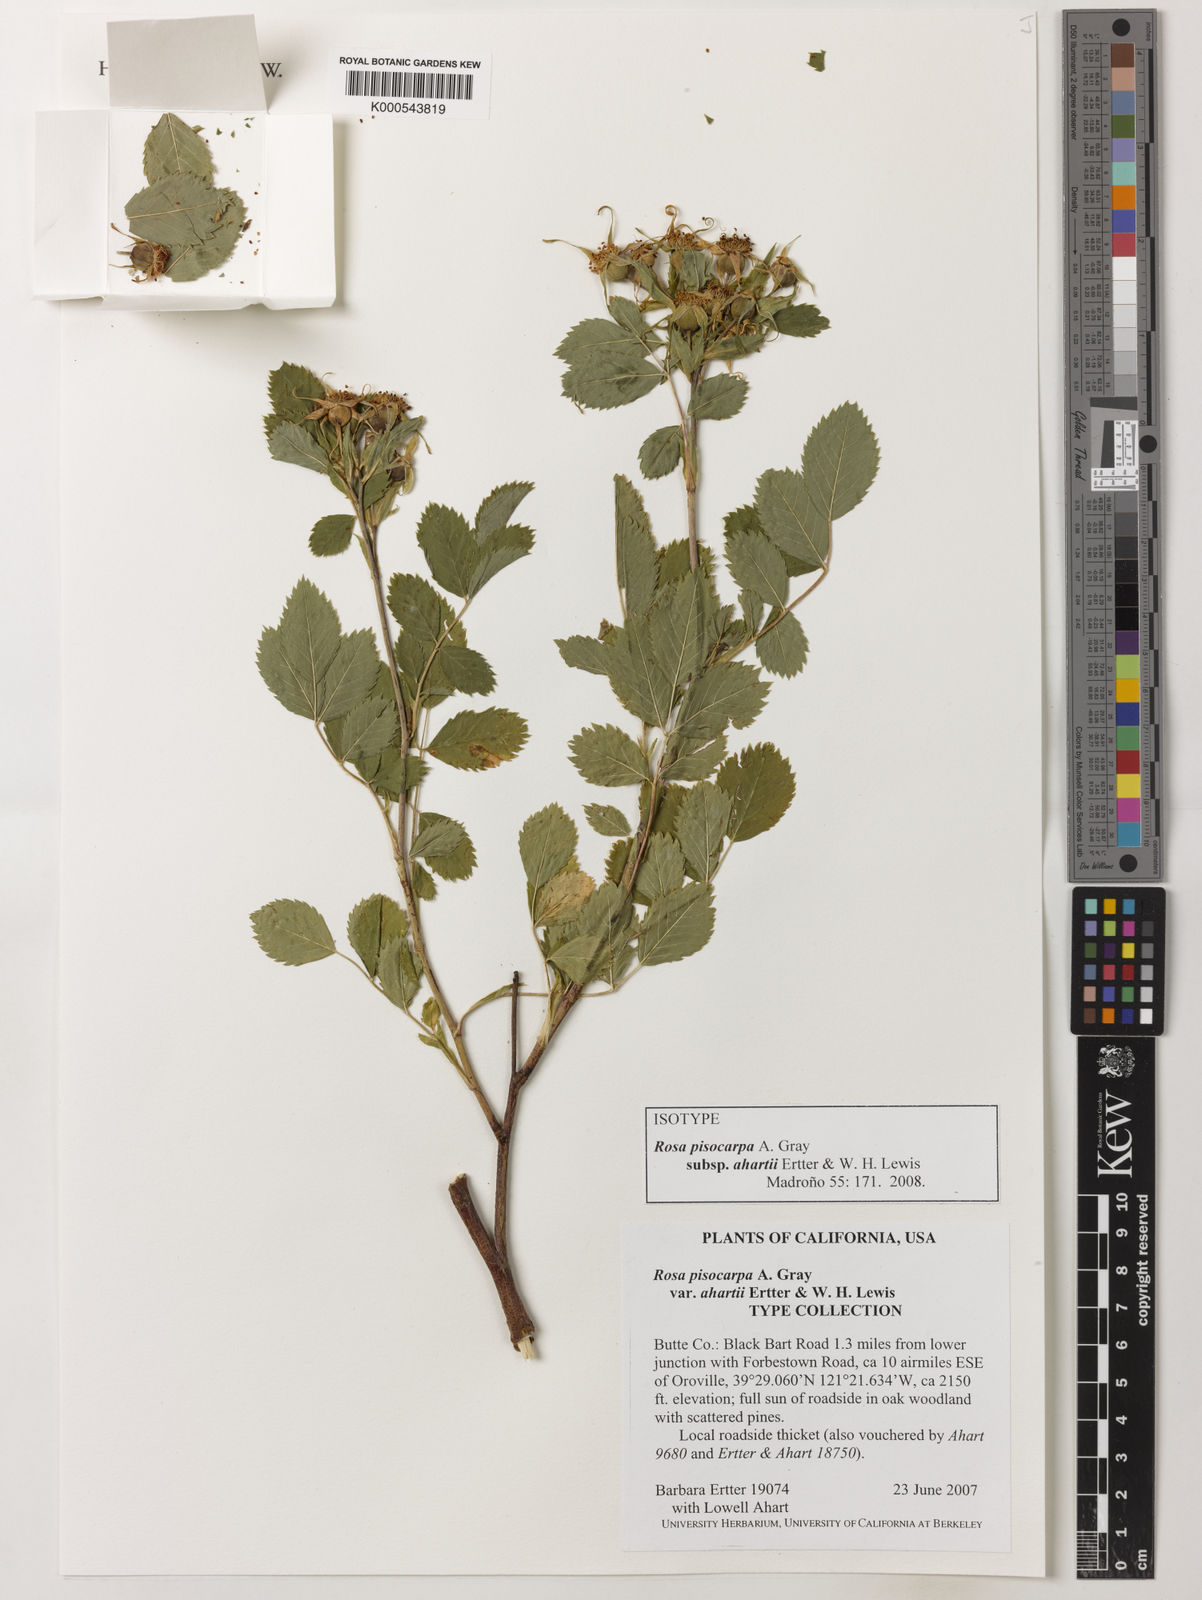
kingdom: Plantae
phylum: Tracheophyta
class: Magnoliopsida
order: Rosales
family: Rosaceae
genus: Rosa
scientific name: Rosa pisocarpa
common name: Cluster rose
